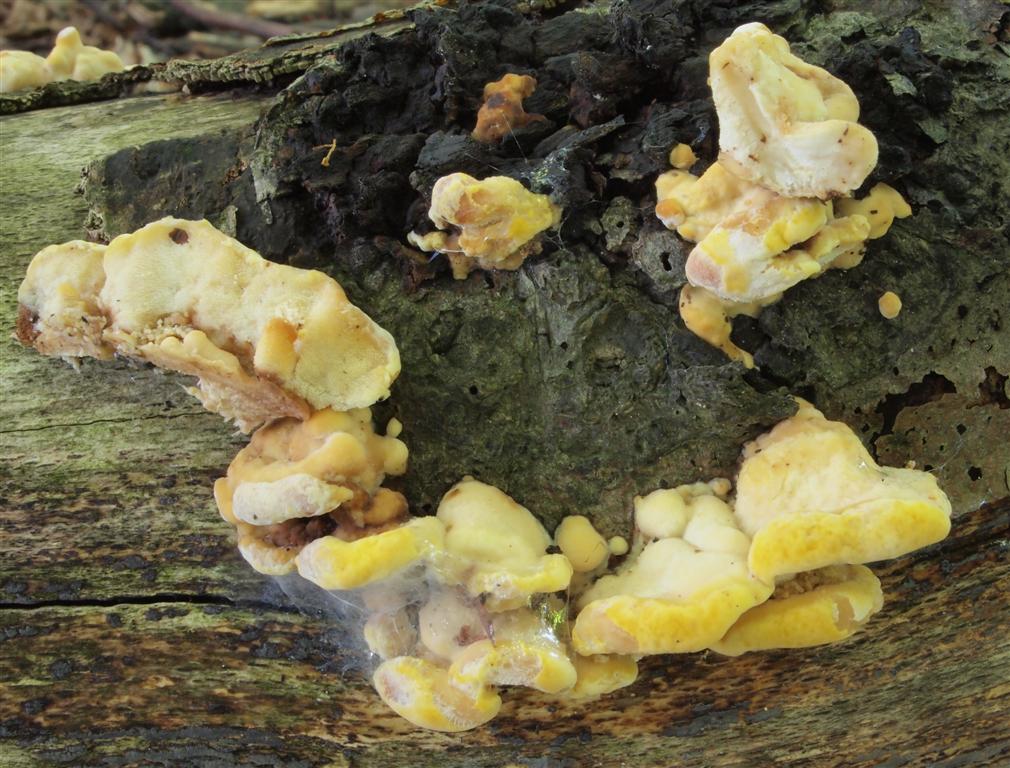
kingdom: Fungi
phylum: Basidiomycota
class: Agaricomycetes
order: Polyporales
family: Steccherinaceae
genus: Antrodiella
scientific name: Antrodiella serpula
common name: gulrandet elastikporesvamp
